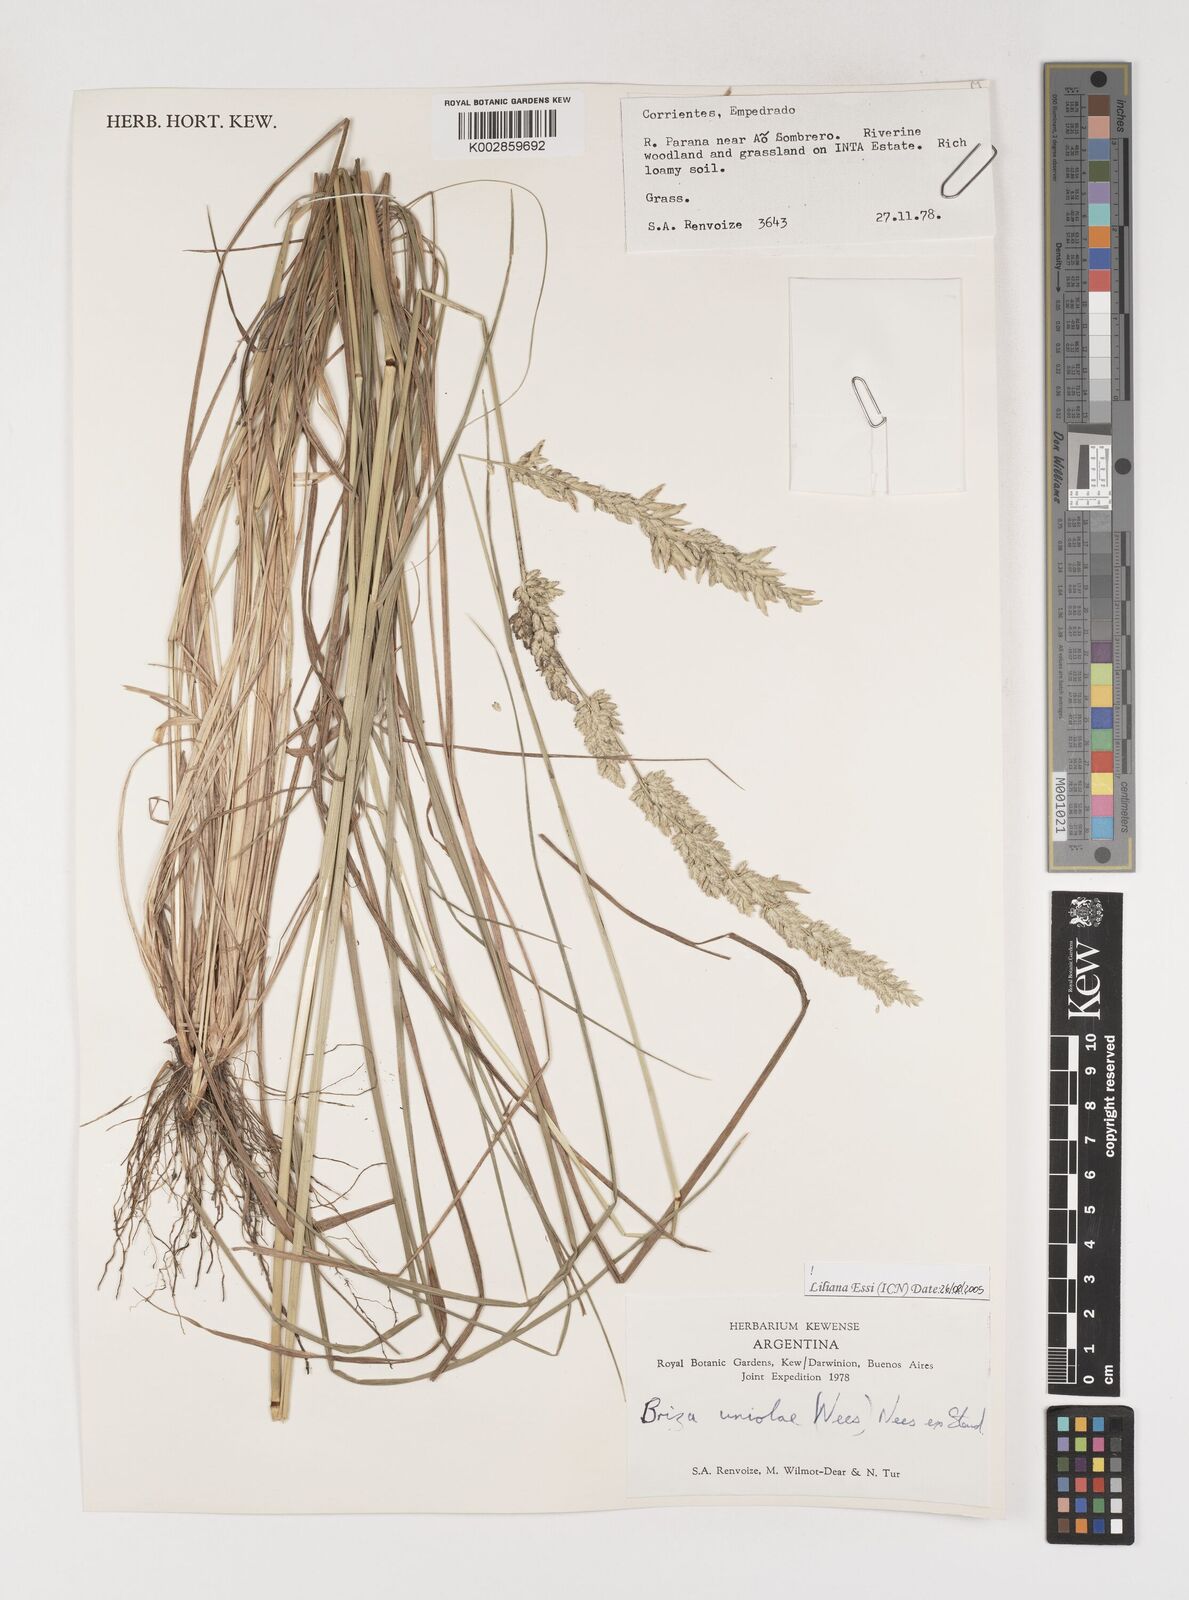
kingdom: Plantae
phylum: Tracheophyta
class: Liliopsida
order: Poales
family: Poaceae
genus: Poidium
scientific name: Poidium uniolae
